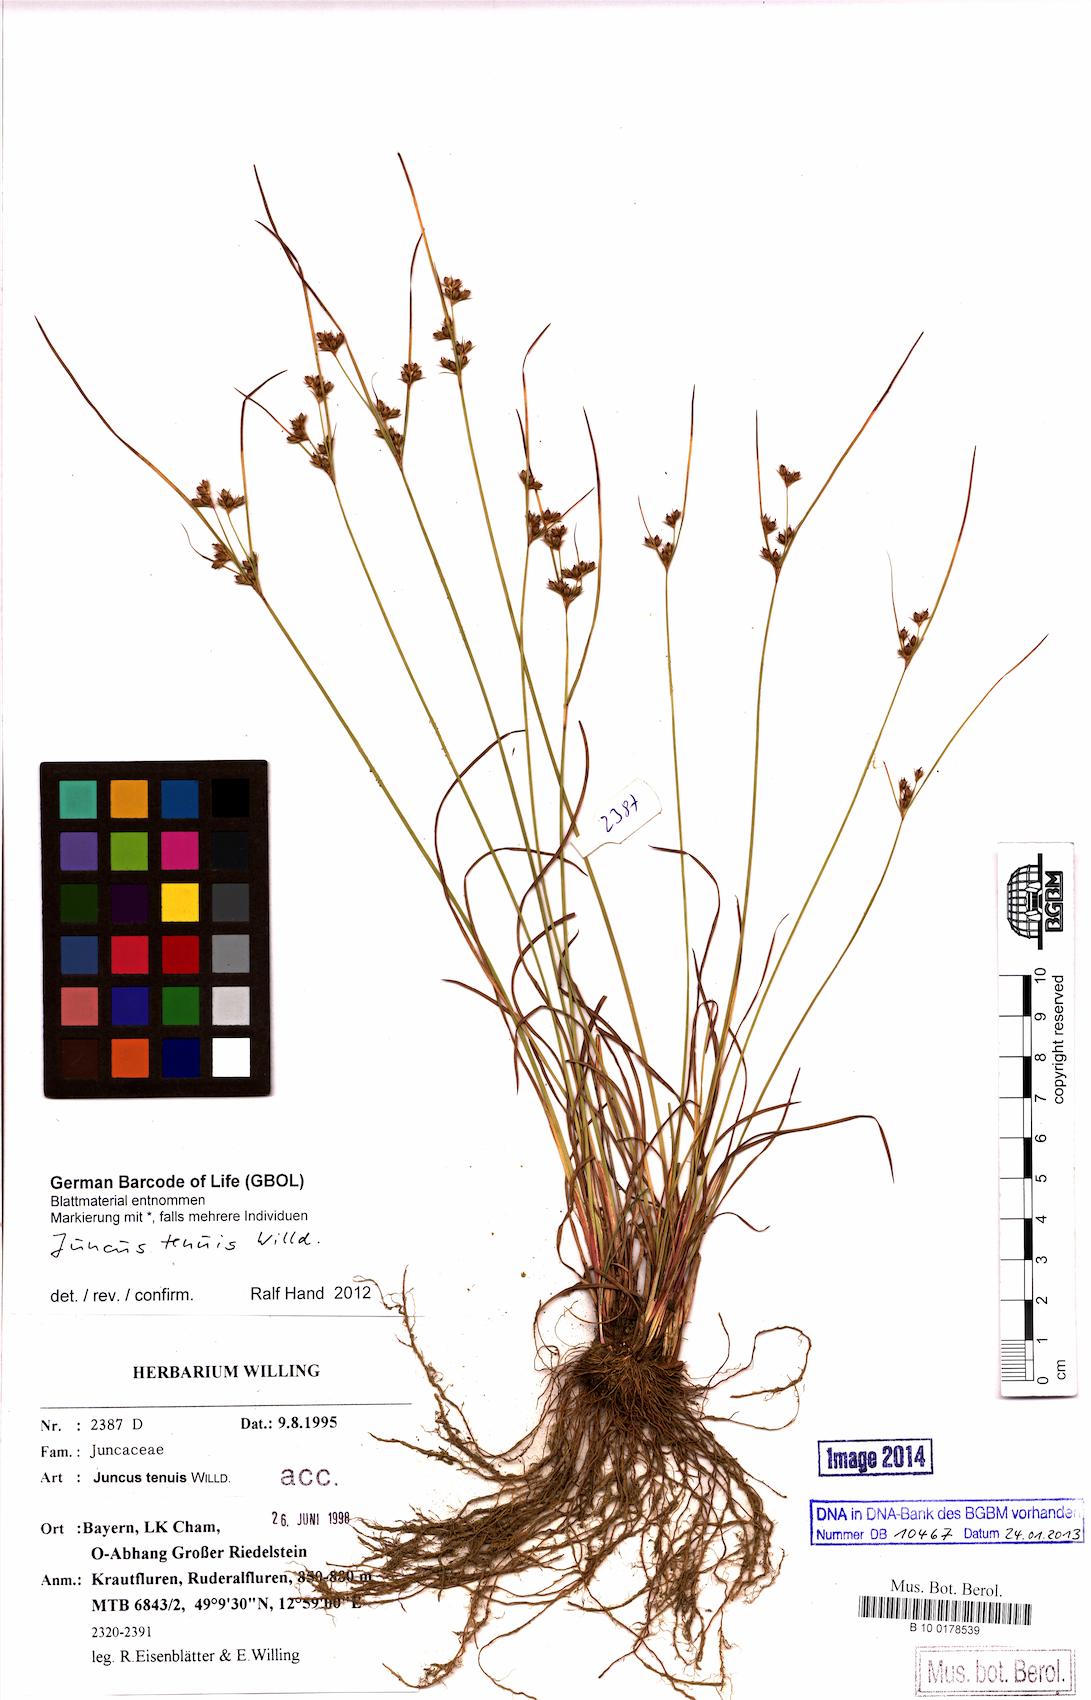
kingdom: Plantae
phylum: Tracheophyta
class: Liliopsida
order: Poales
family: Juncaceae
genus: Juncus
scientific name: Juncus tenuis
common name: Slender rush
